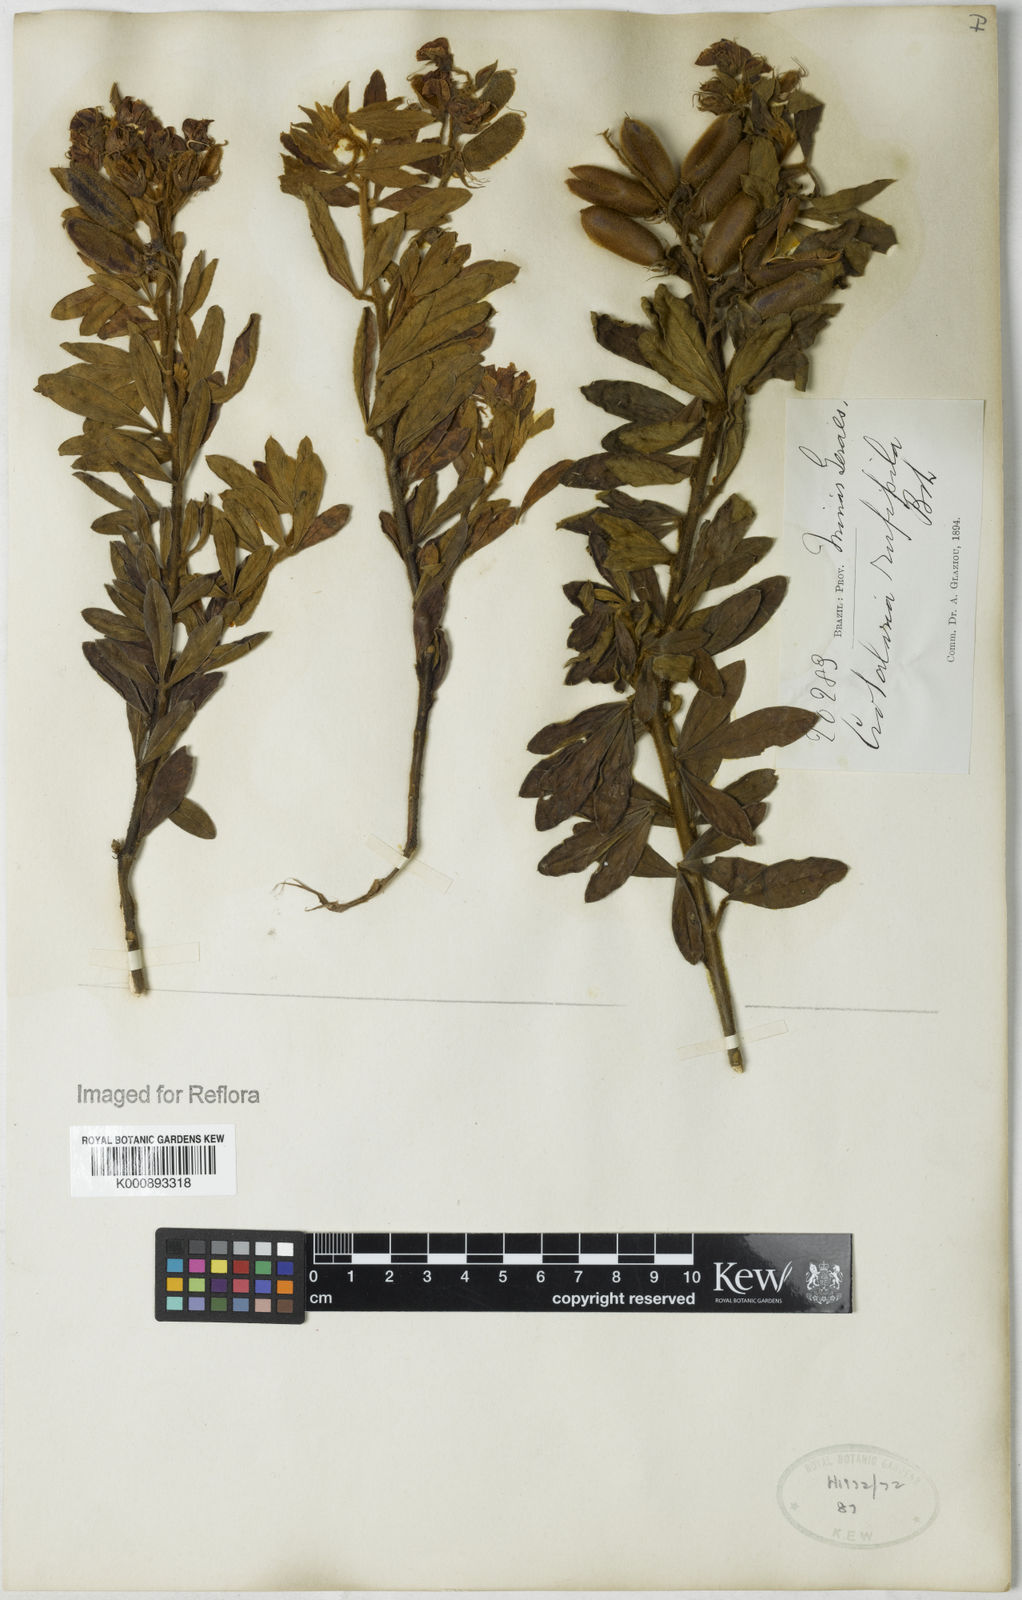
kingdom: Plantae
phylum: Tracheophyta
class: Magnoliopsida
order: Fabales
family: Fabaceae
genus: Crotalaria
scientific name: Crotalaria rufipila
